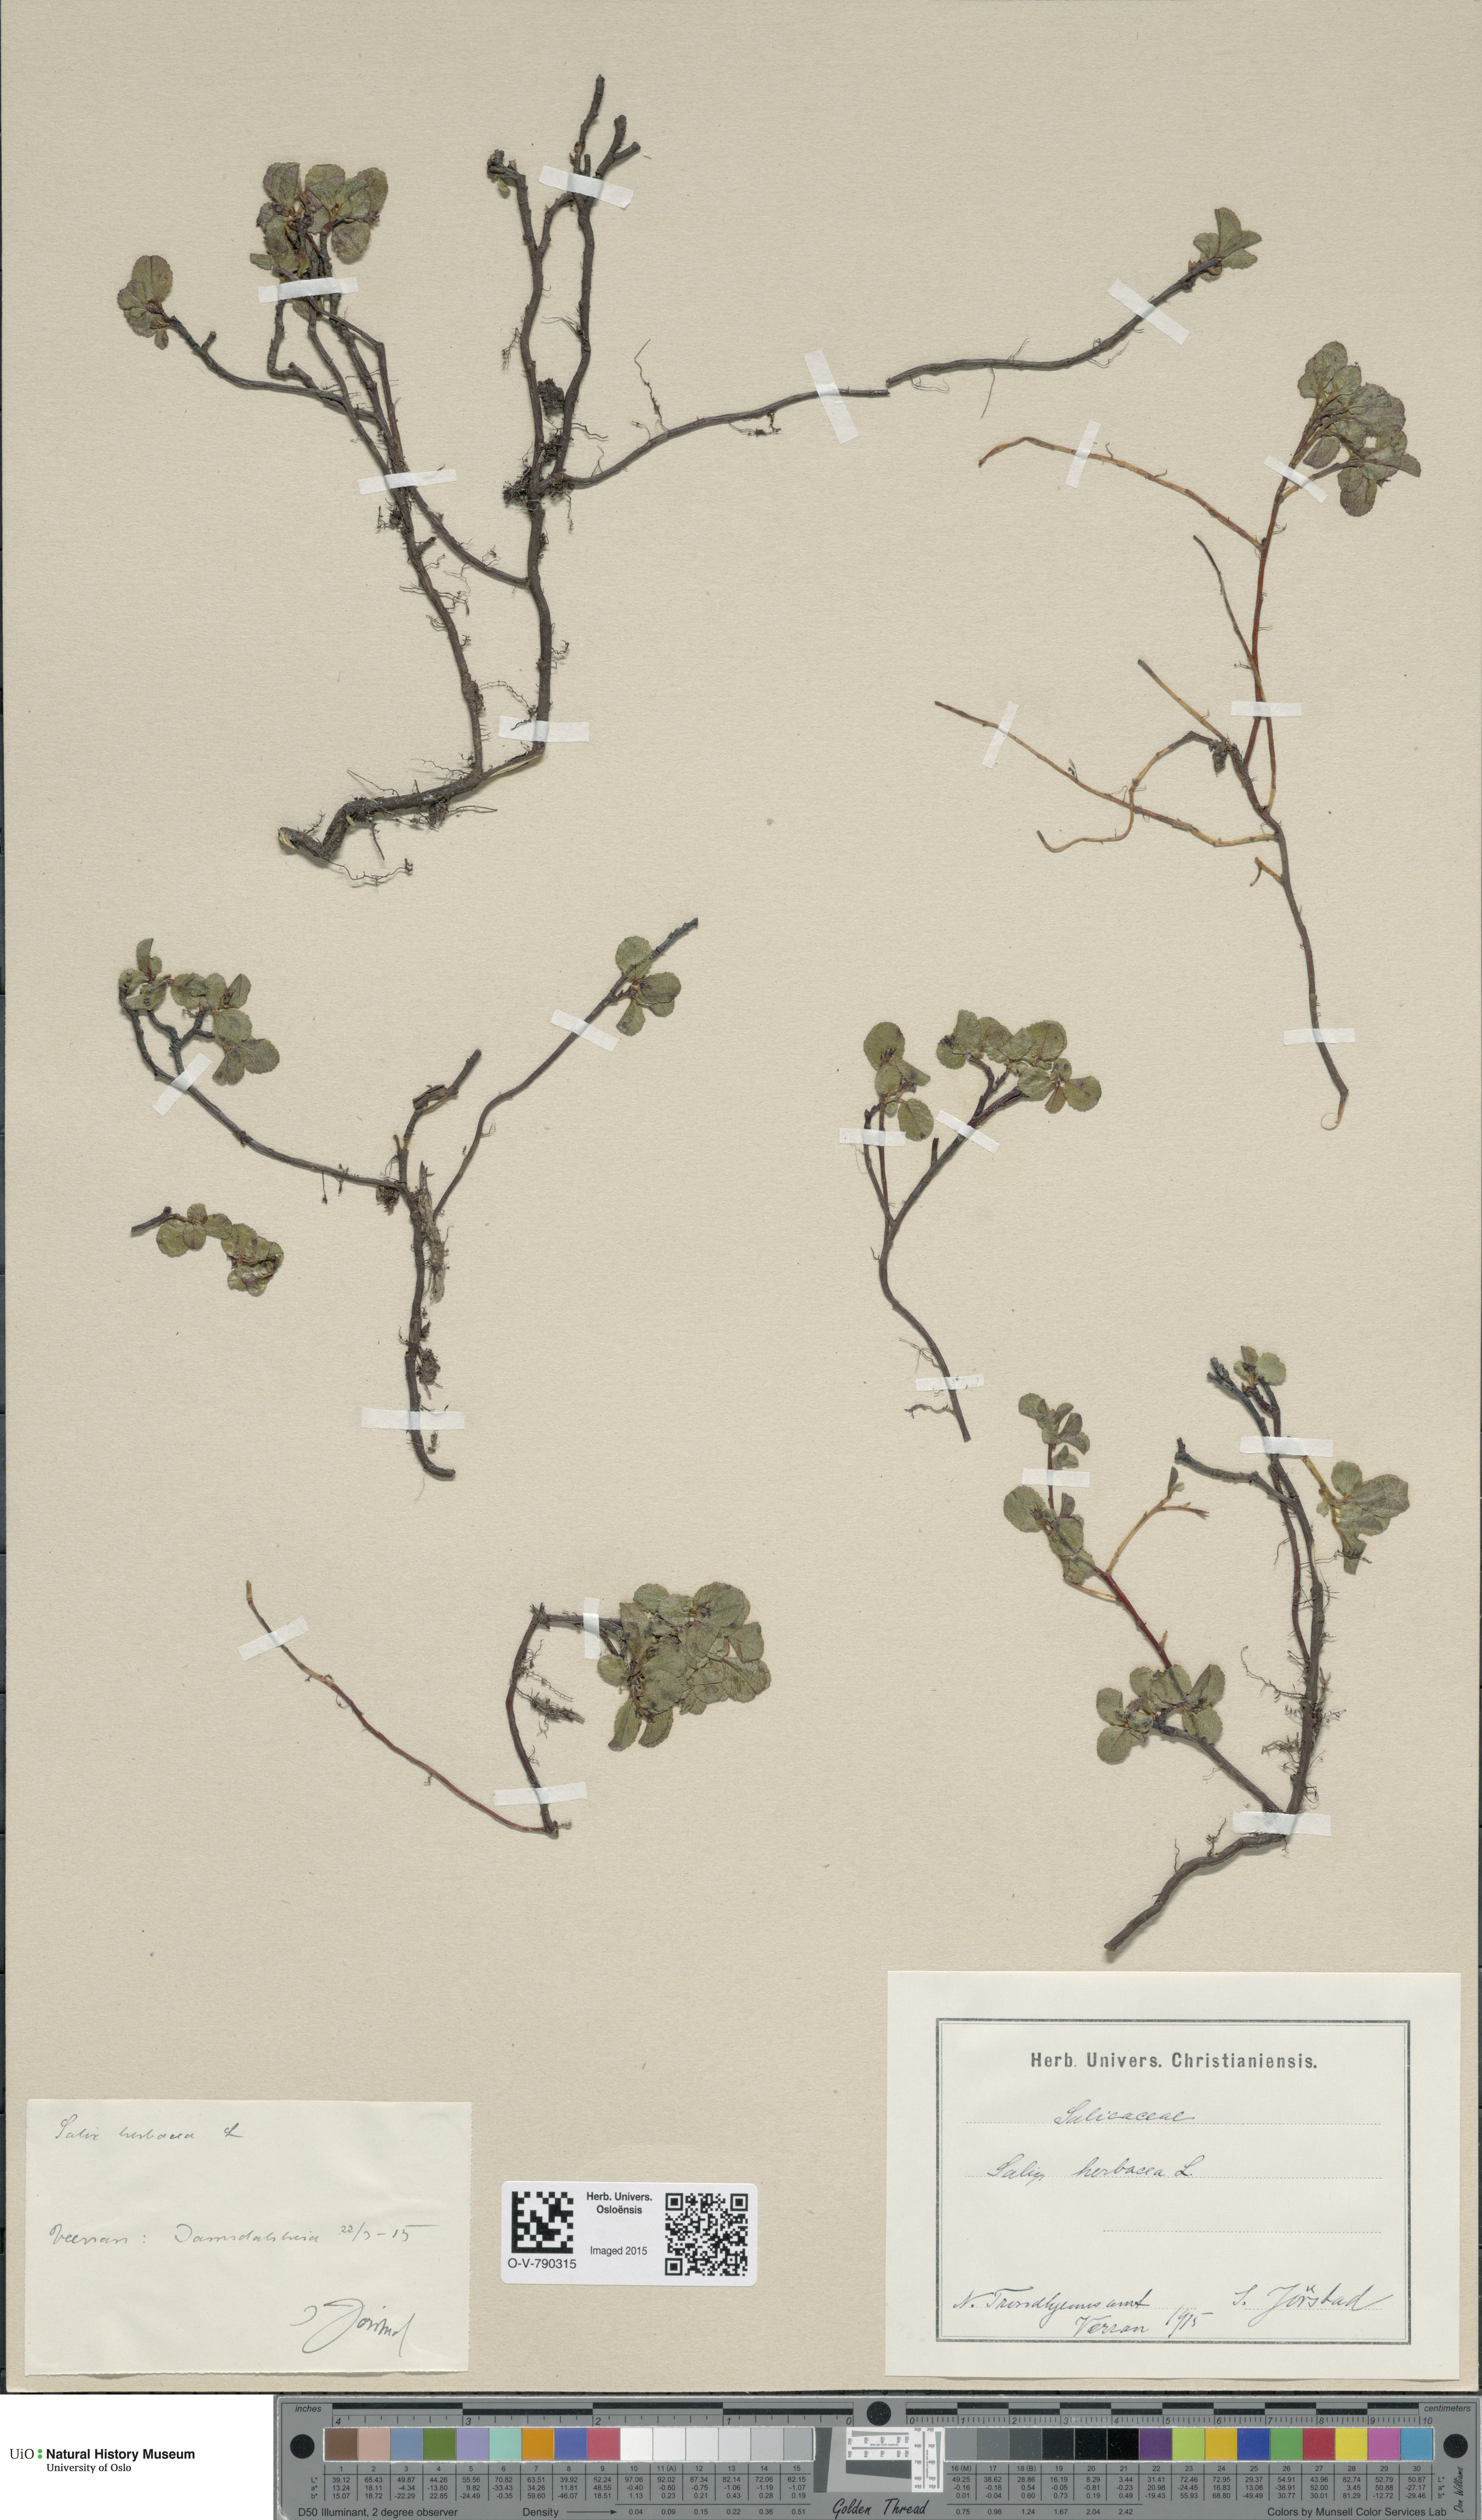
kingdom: Plantae
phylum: Tracheophyta
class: Magnoliopsida
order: Malpighiales
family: Salicaceae
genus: Salix
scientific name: Salix herbacea
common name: Dwarf willow
